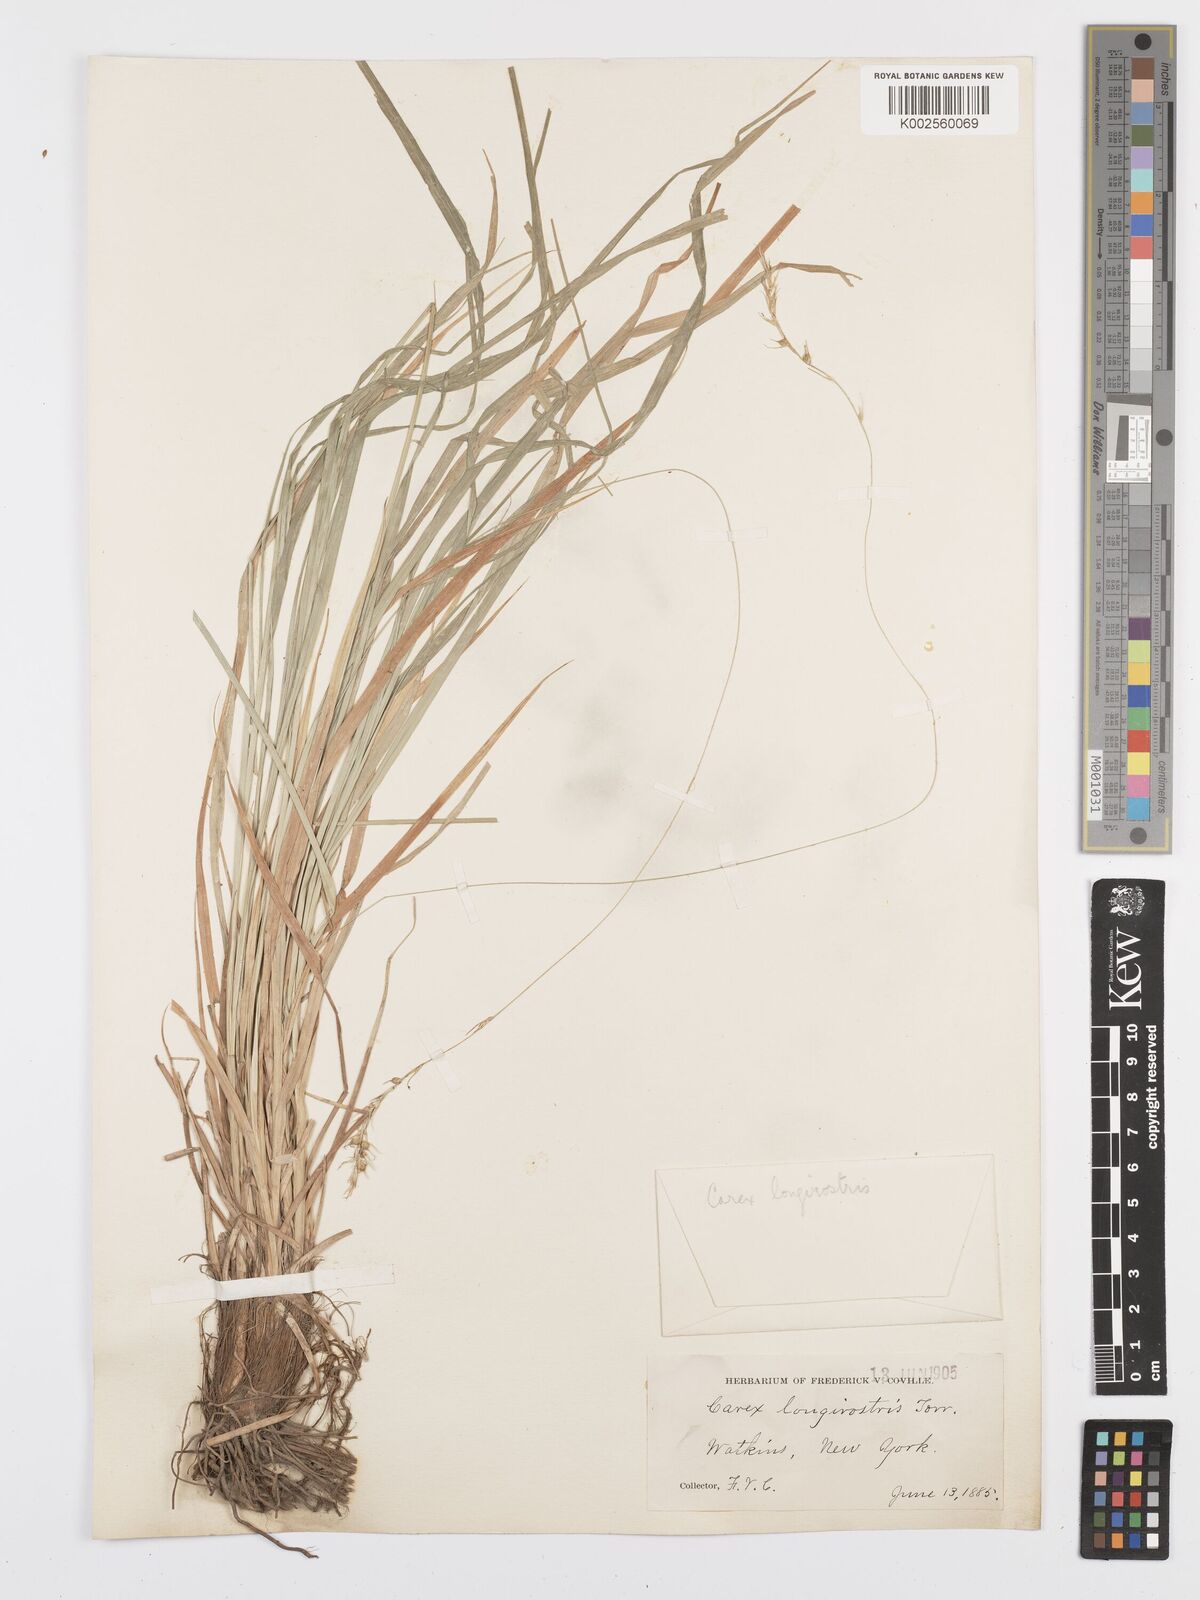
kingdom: Plantae
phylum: Tracheophyta
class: Liliopsida
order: Poales
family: Cyperaceae
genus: Carex
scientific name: Carex sprengelii
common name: Long-beaked sedge
